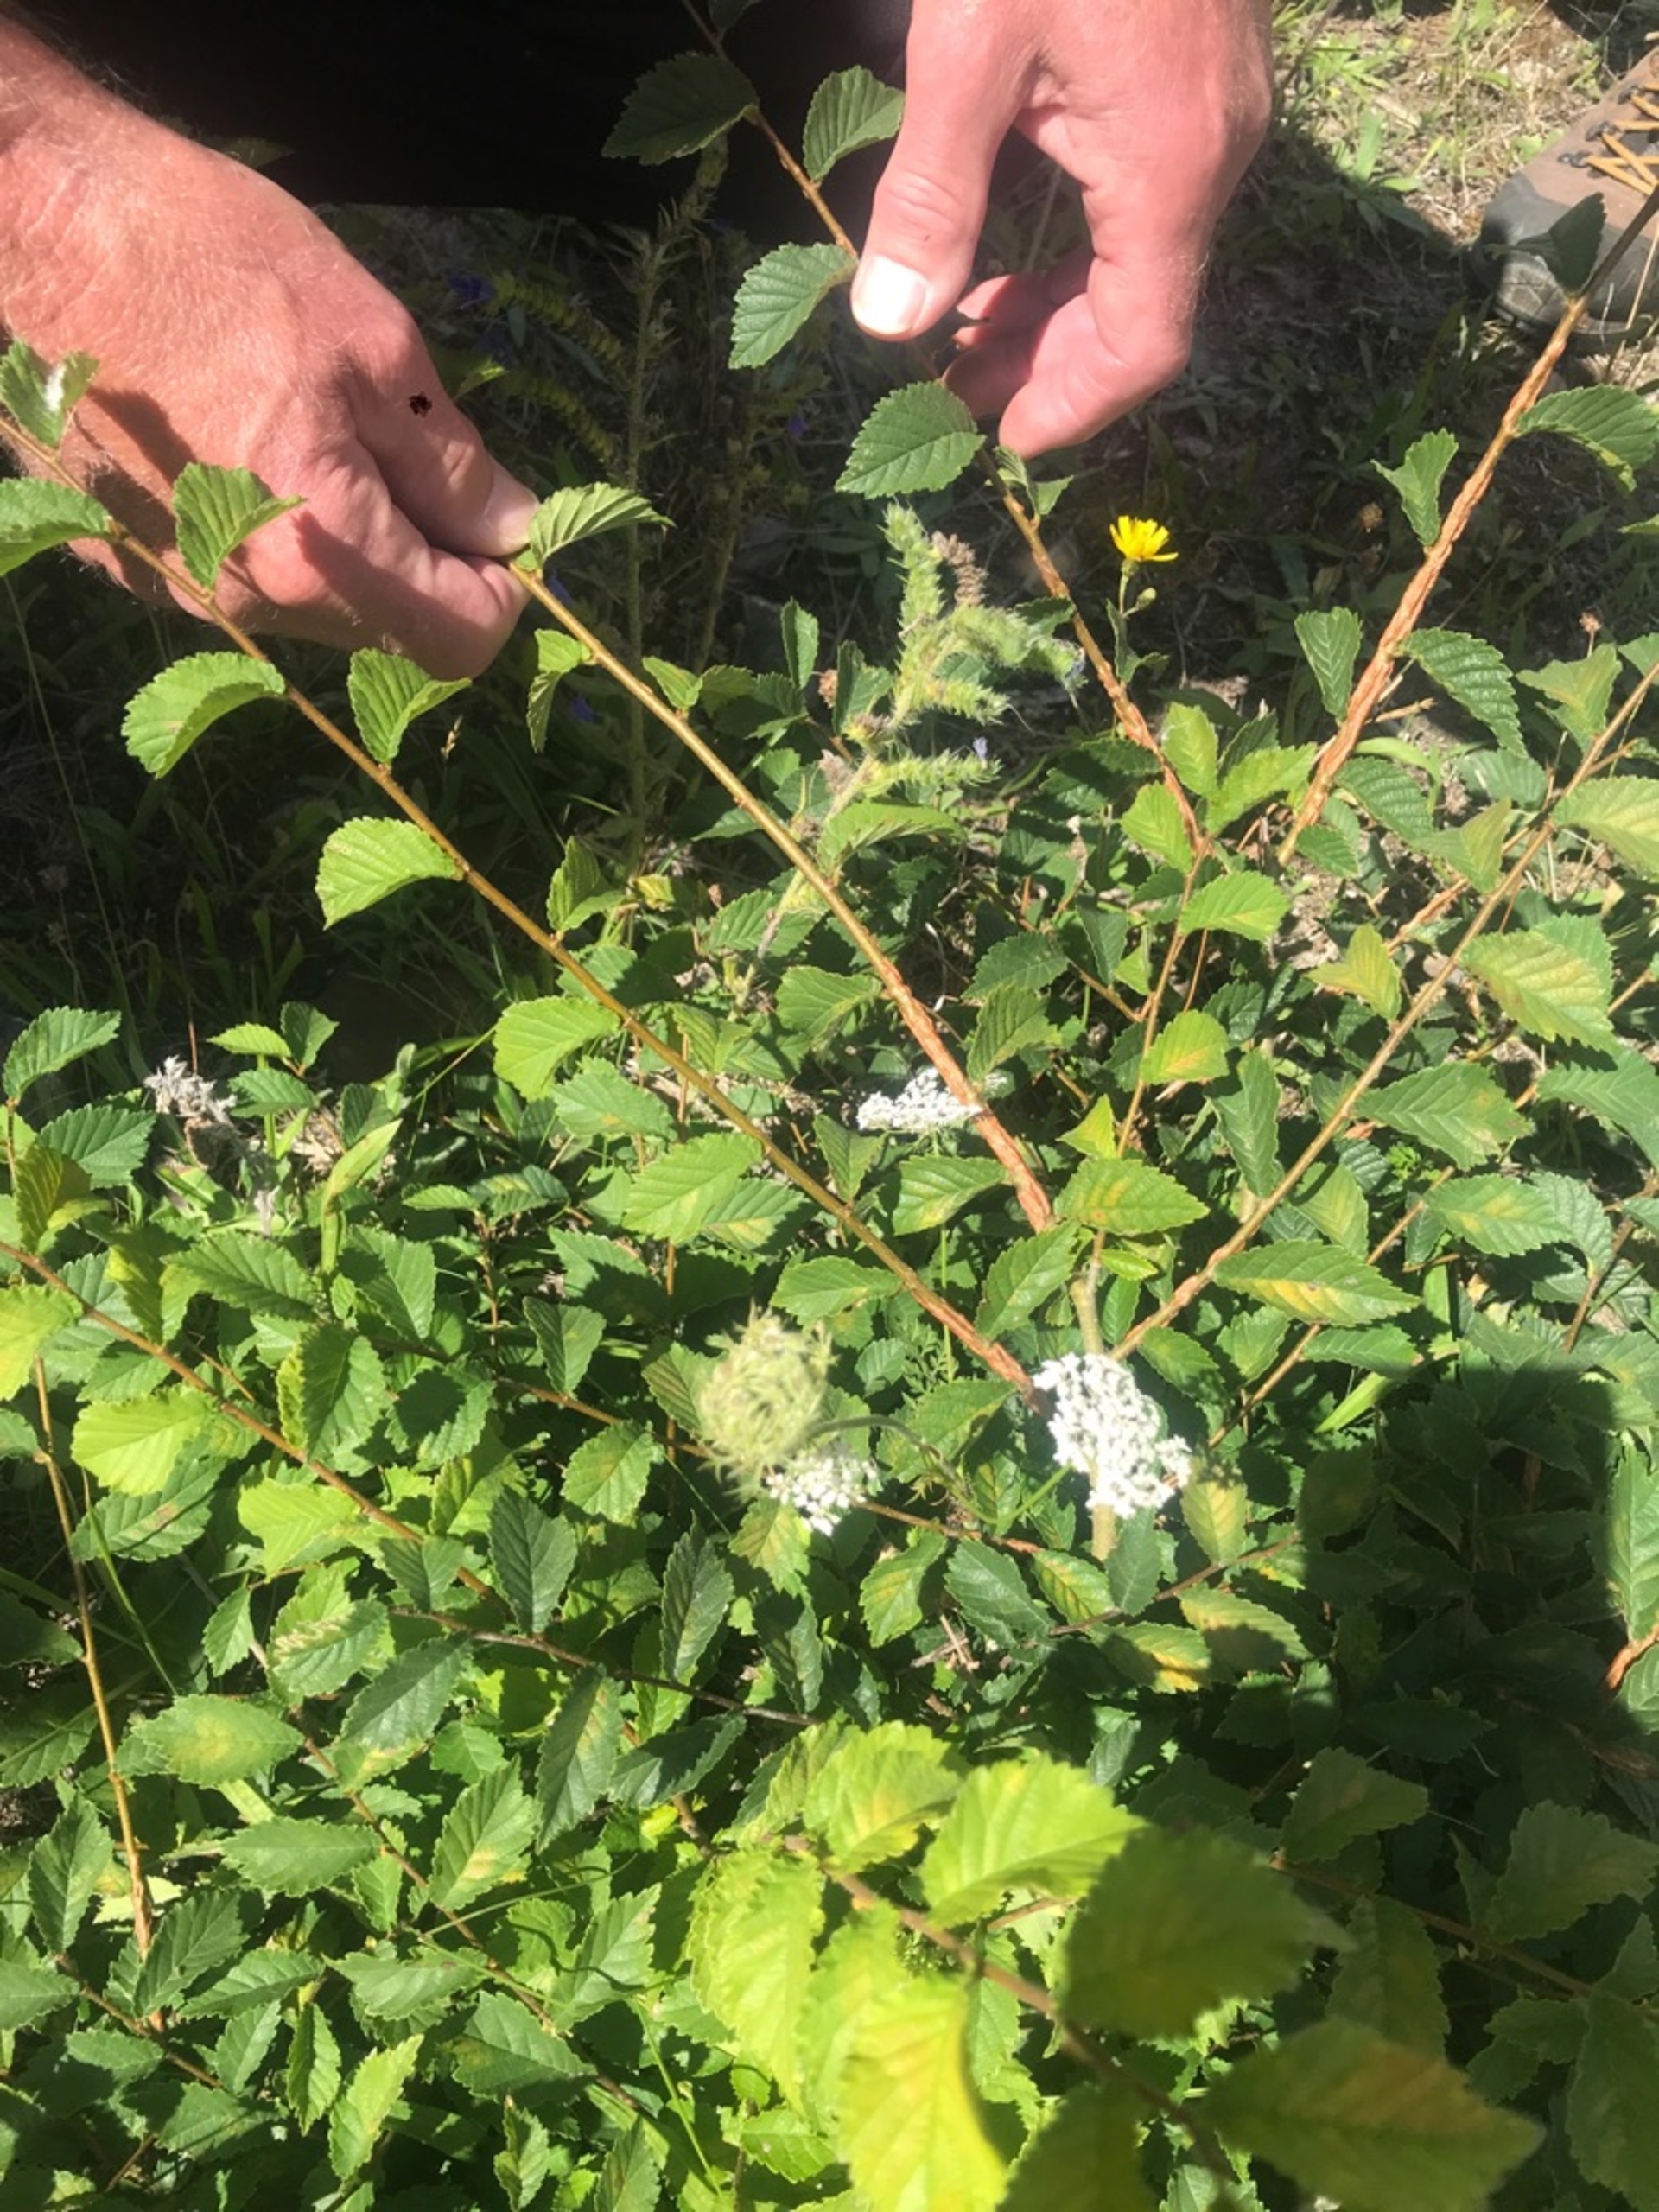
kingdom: Plantae
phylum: Tracheophyta
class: Magnoliopsida
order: Rosales
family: Ulmaceae
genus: Ulmus
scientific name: Ulmus minor
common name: Småbladet elm
